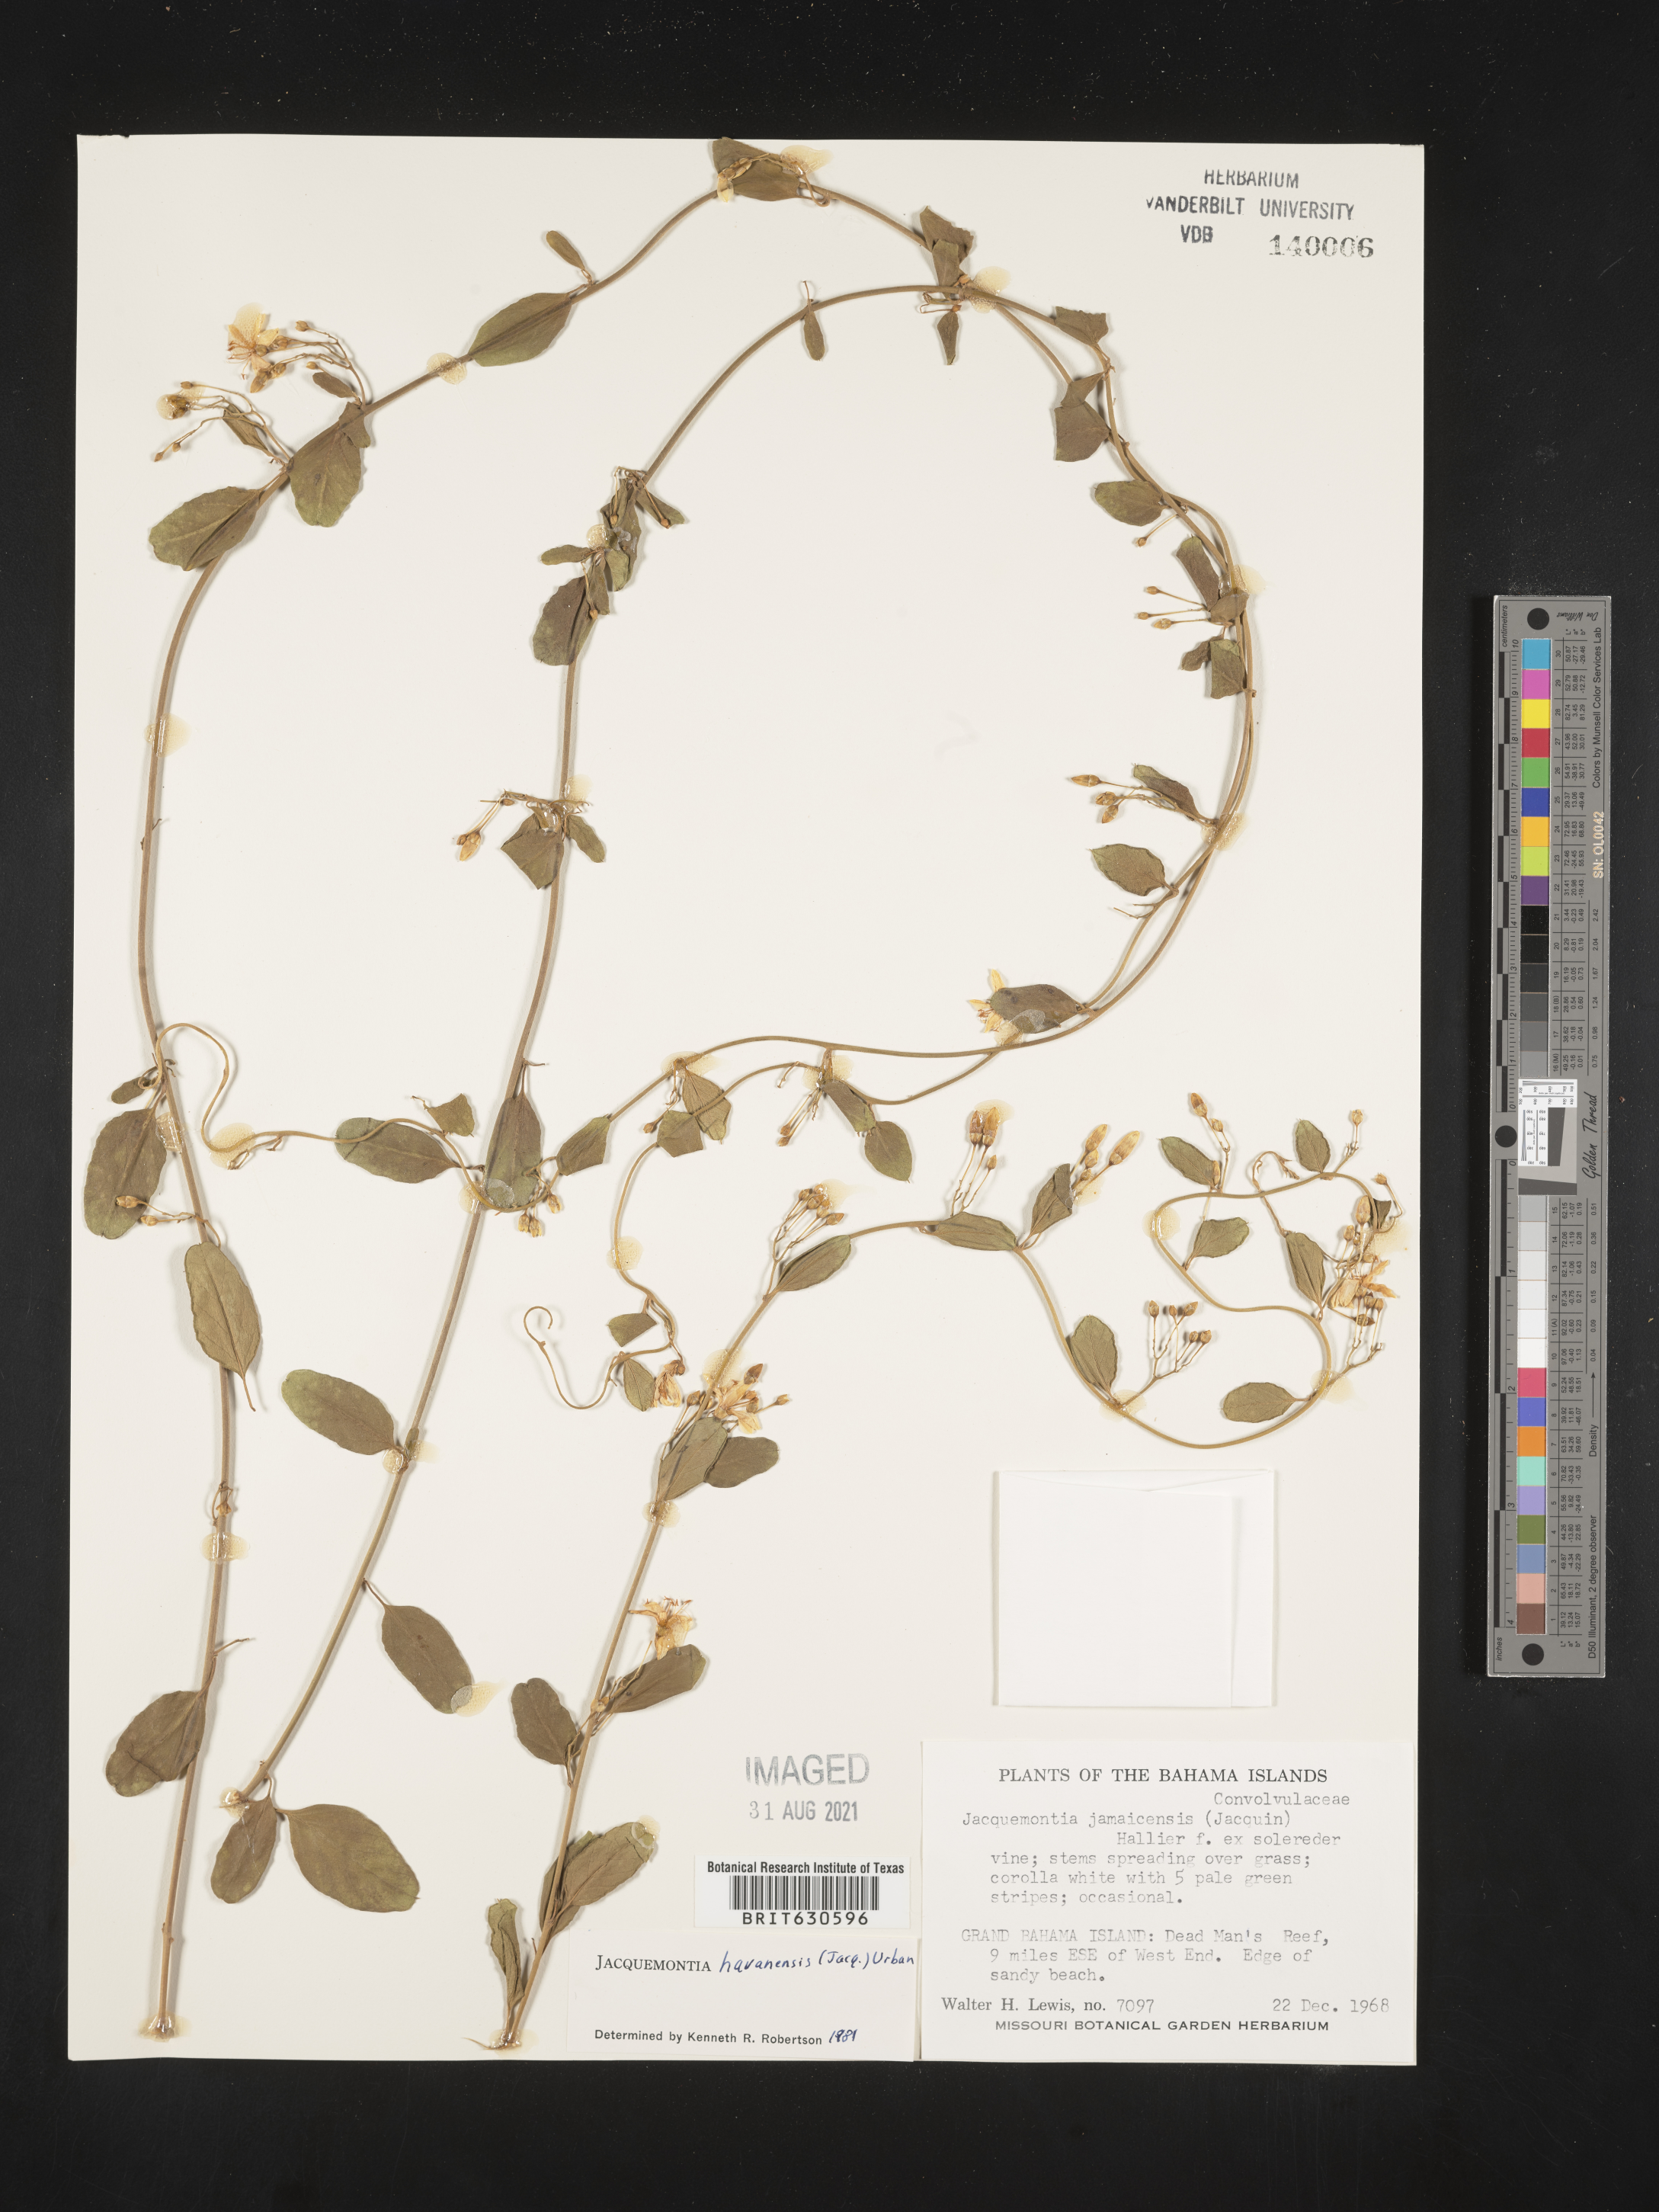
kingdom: Plantae
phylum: Tracheophyta
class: Magnoliopsida
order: Solanales
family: Convolvulaceae
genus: Jacquemontia
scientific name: Jacquemontia havanensis
